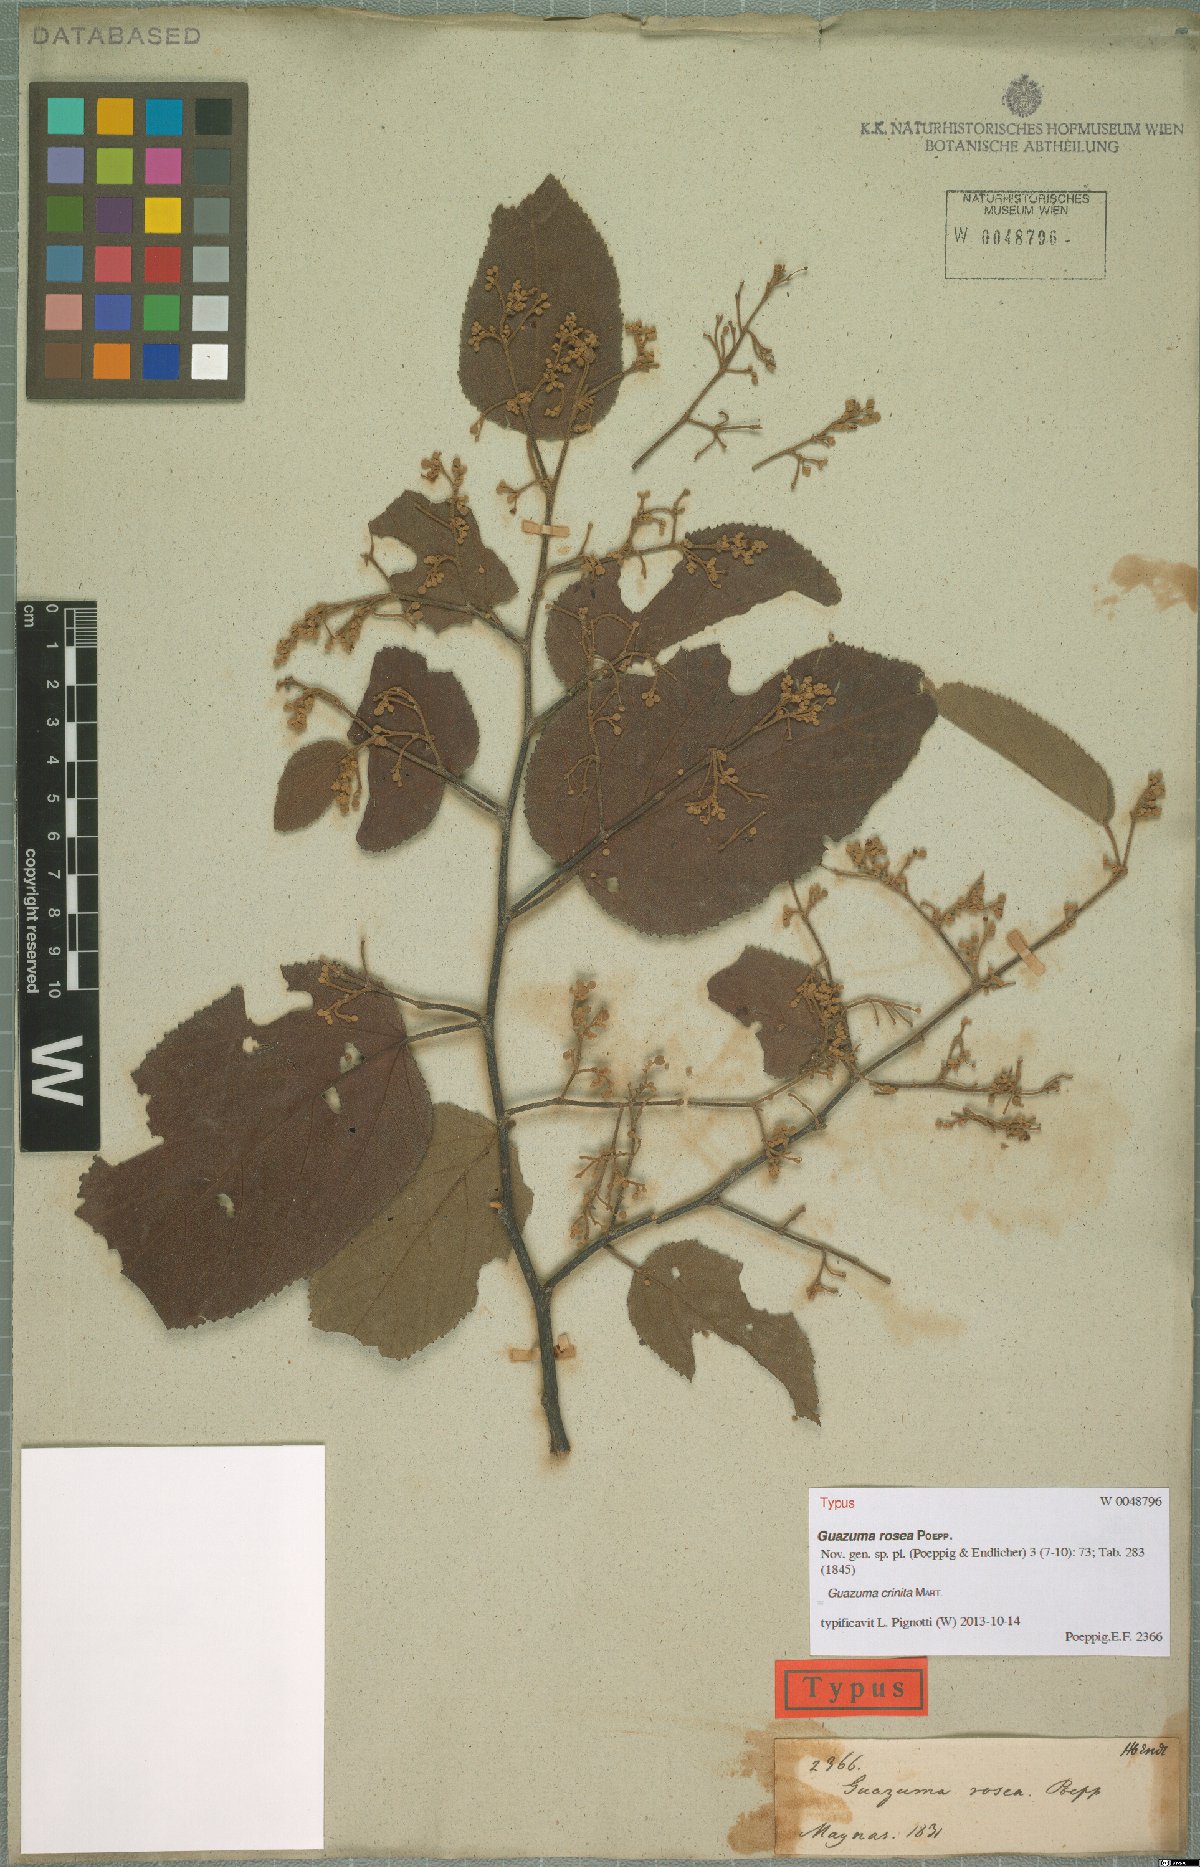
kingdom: Plantae
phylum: Tracheophyta
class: Magnoliopsida
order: Malvales
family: Malvaceae
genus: Guazuma
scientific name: Guazuma crinita
